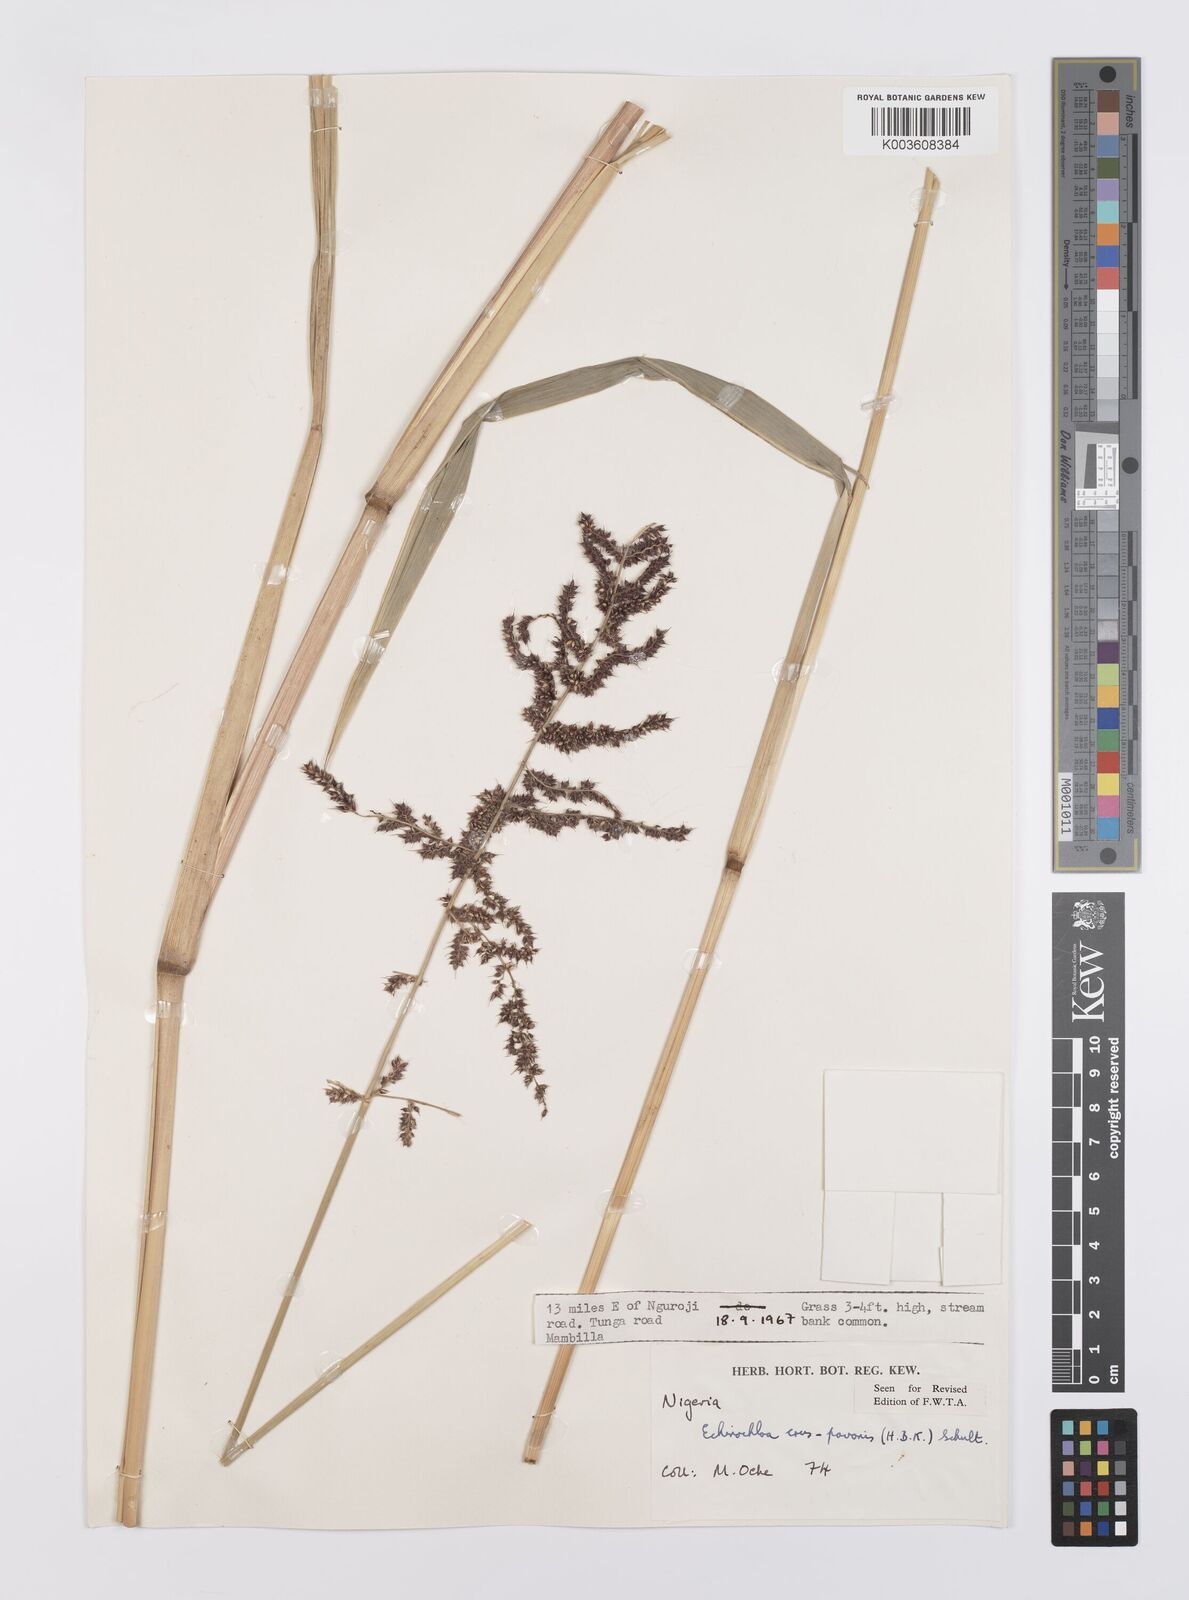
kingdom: Plantae
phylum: Tracheophyta
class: Liliopsida
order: Poales
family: Poaceae
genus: Echinochloa
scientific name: Echinochloa crus-pavonis
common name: Gulf cockspur grass
